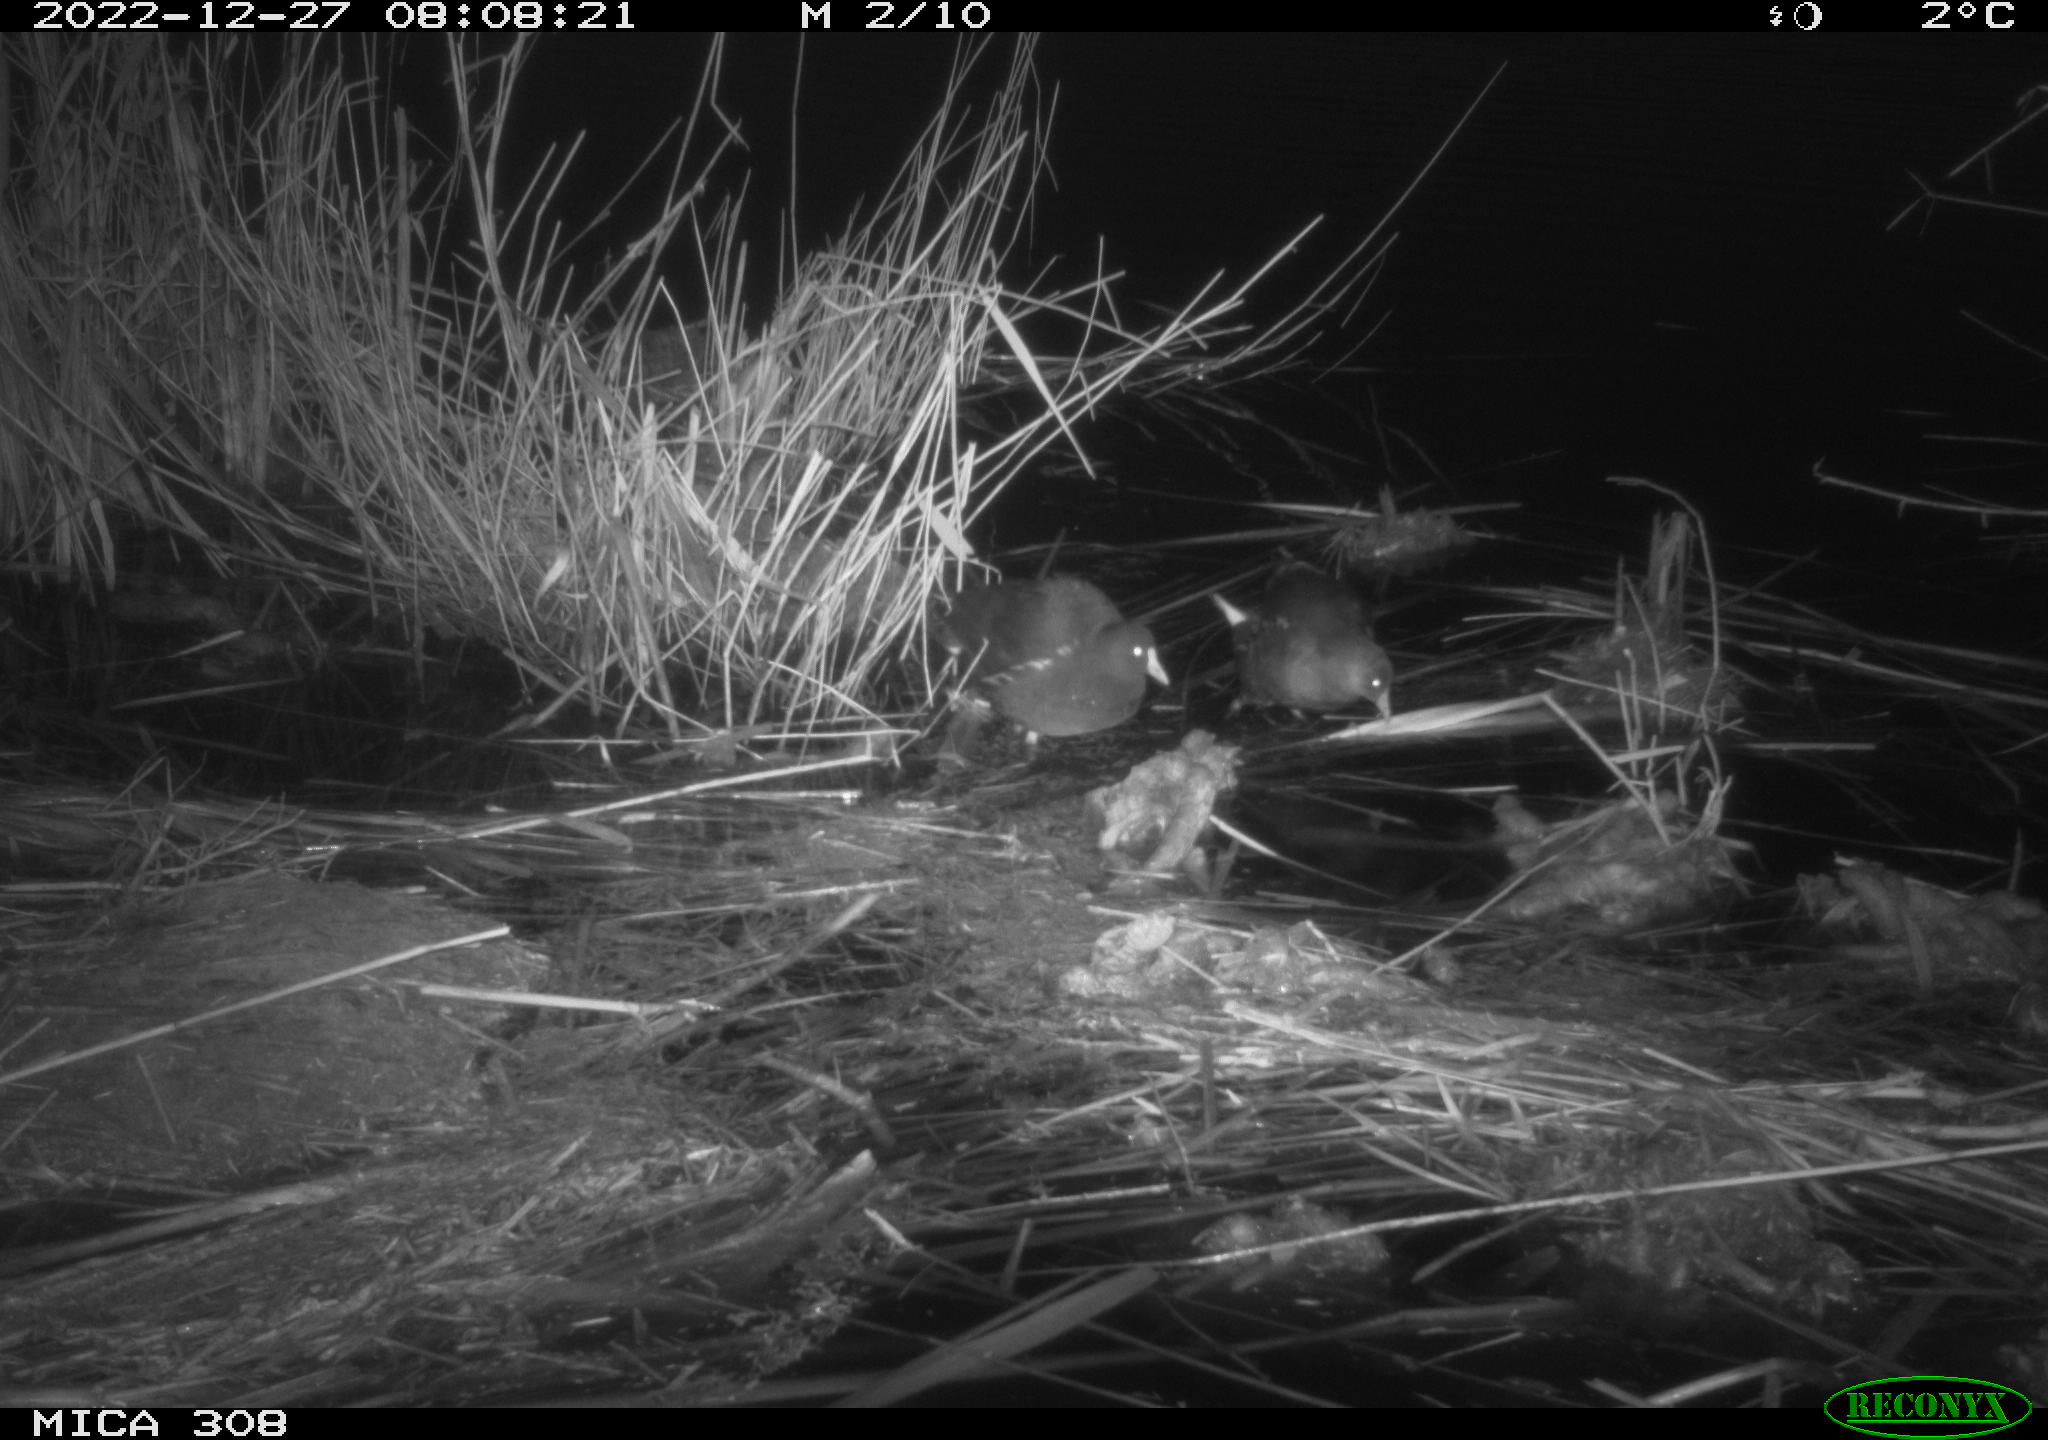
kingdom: Animalia
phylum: Chordata
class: Mammalia
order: Rodentia
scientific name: Rodentia
